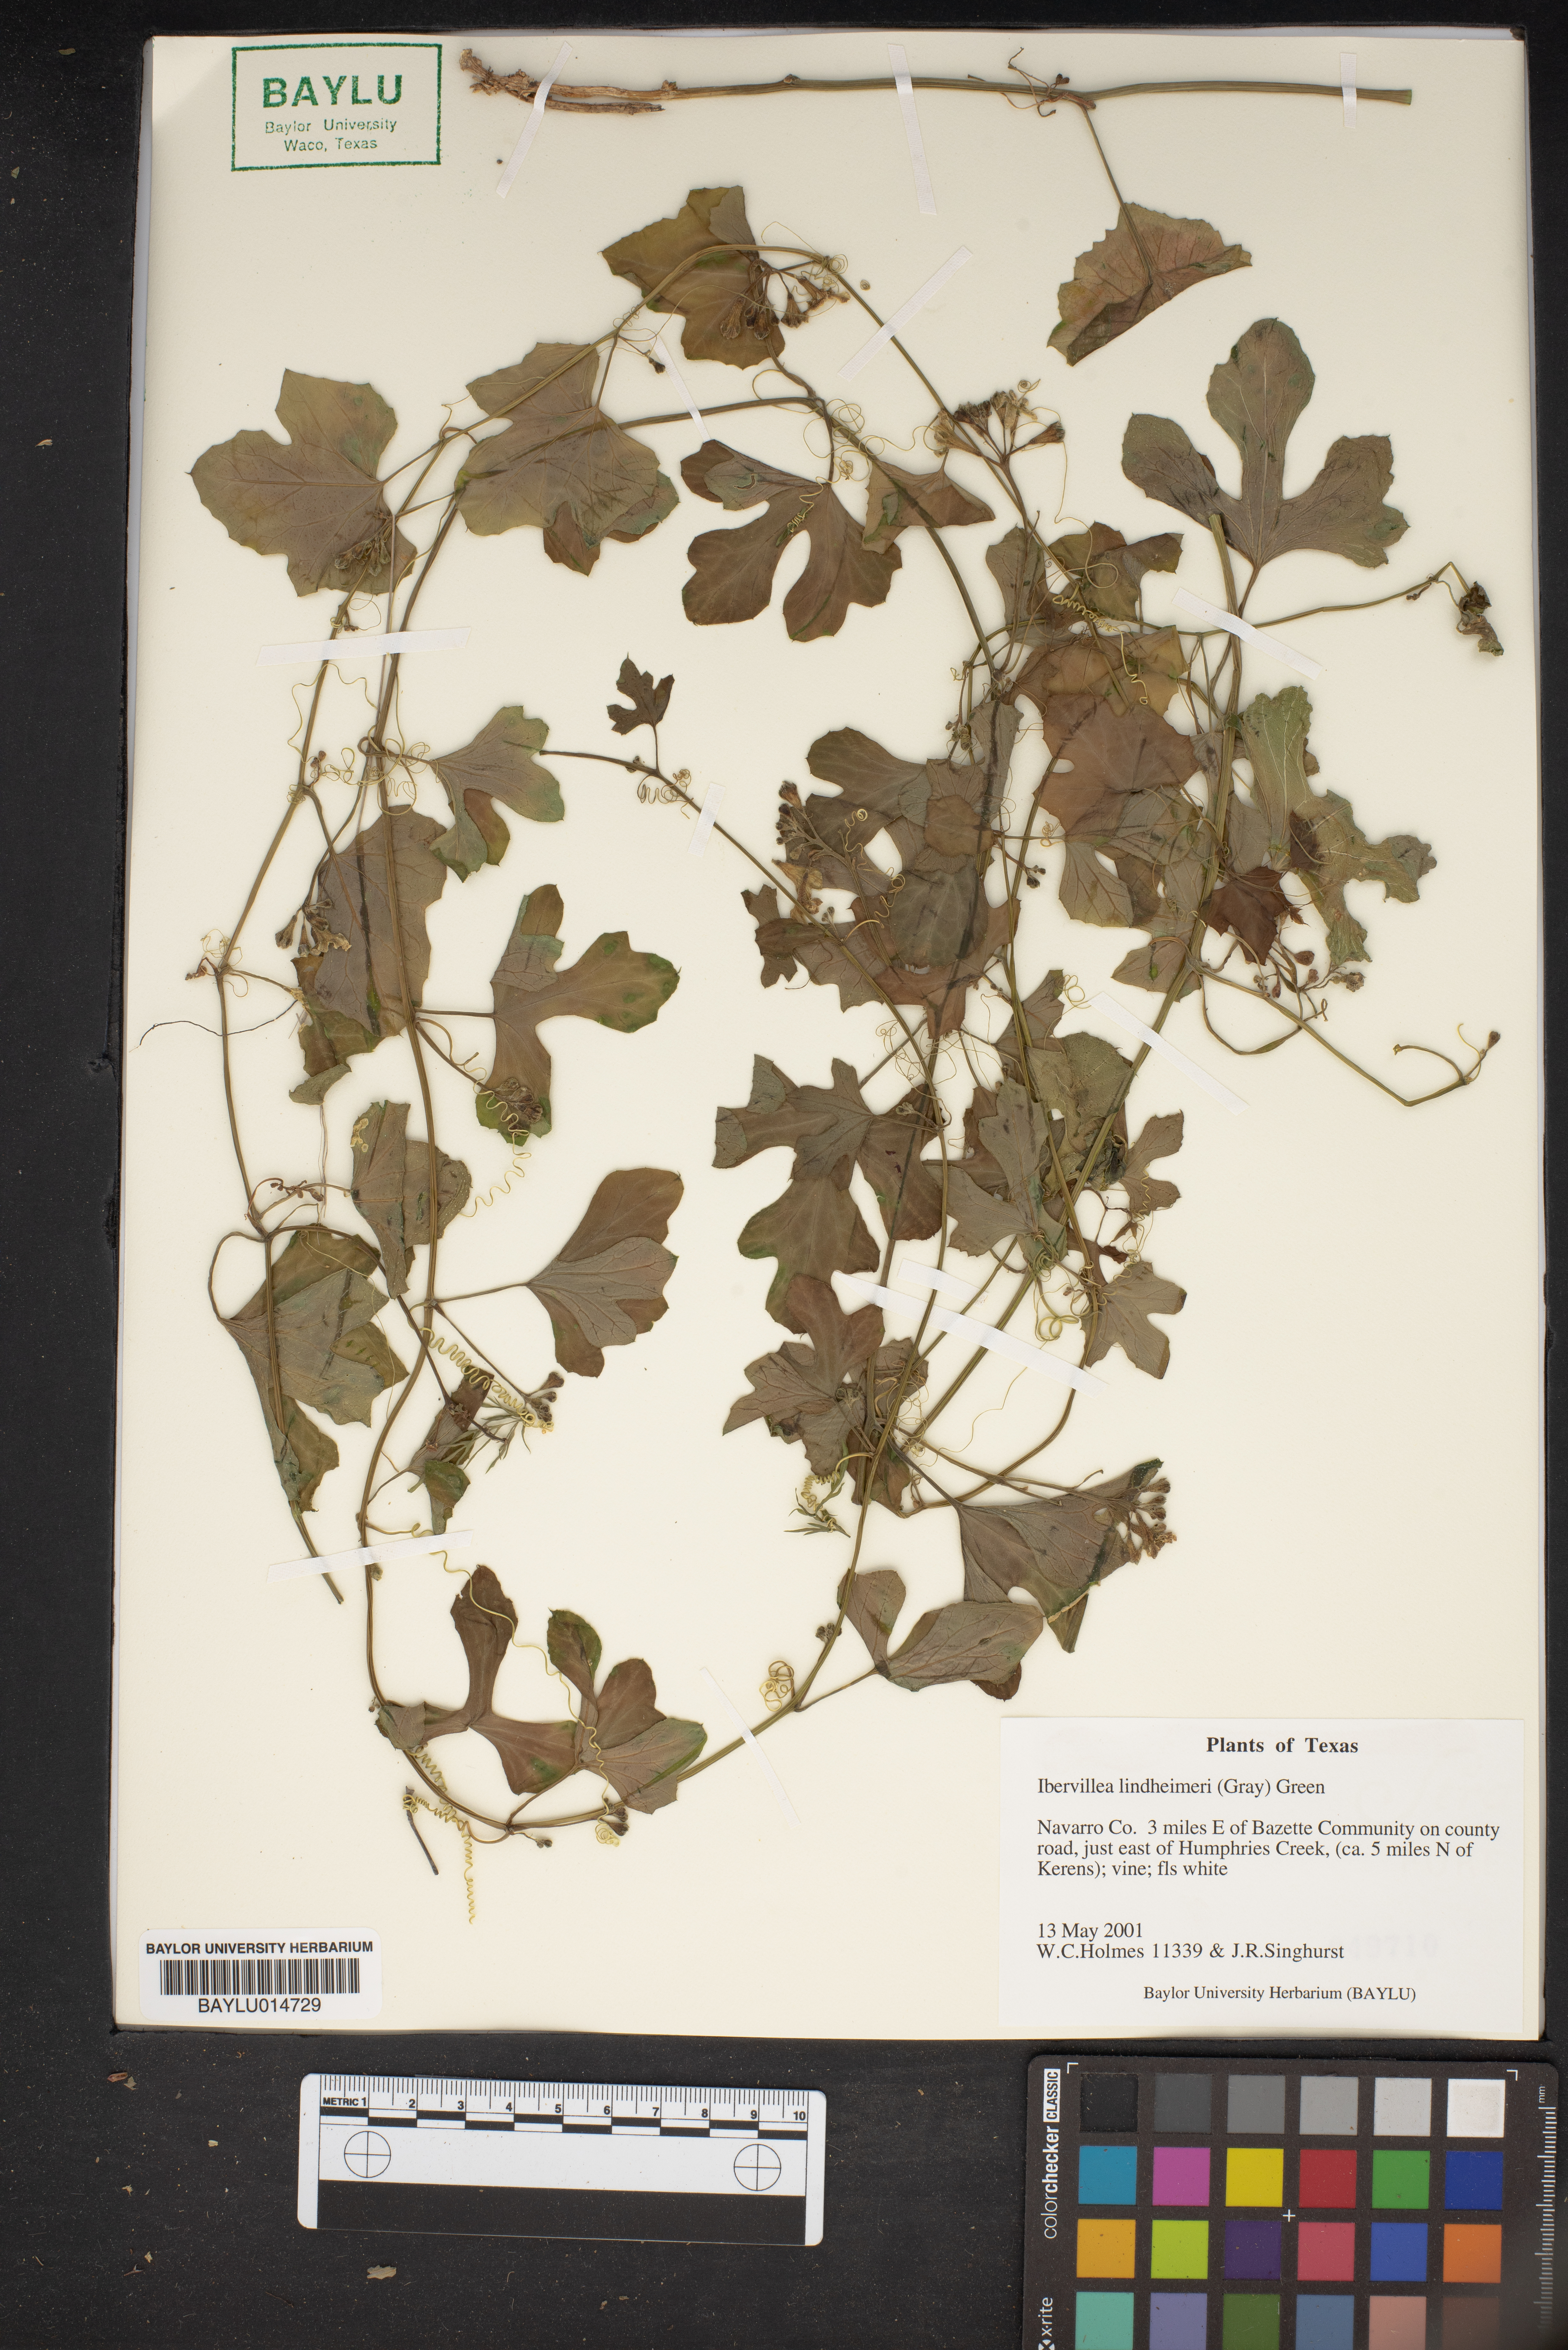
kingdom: Plantae
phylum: Tracheophyta
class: Magnoliopsida
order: Cucurbitales
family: Cucurbitaceae
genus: Ibervillea
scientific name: Ibervillea lindheimeri
